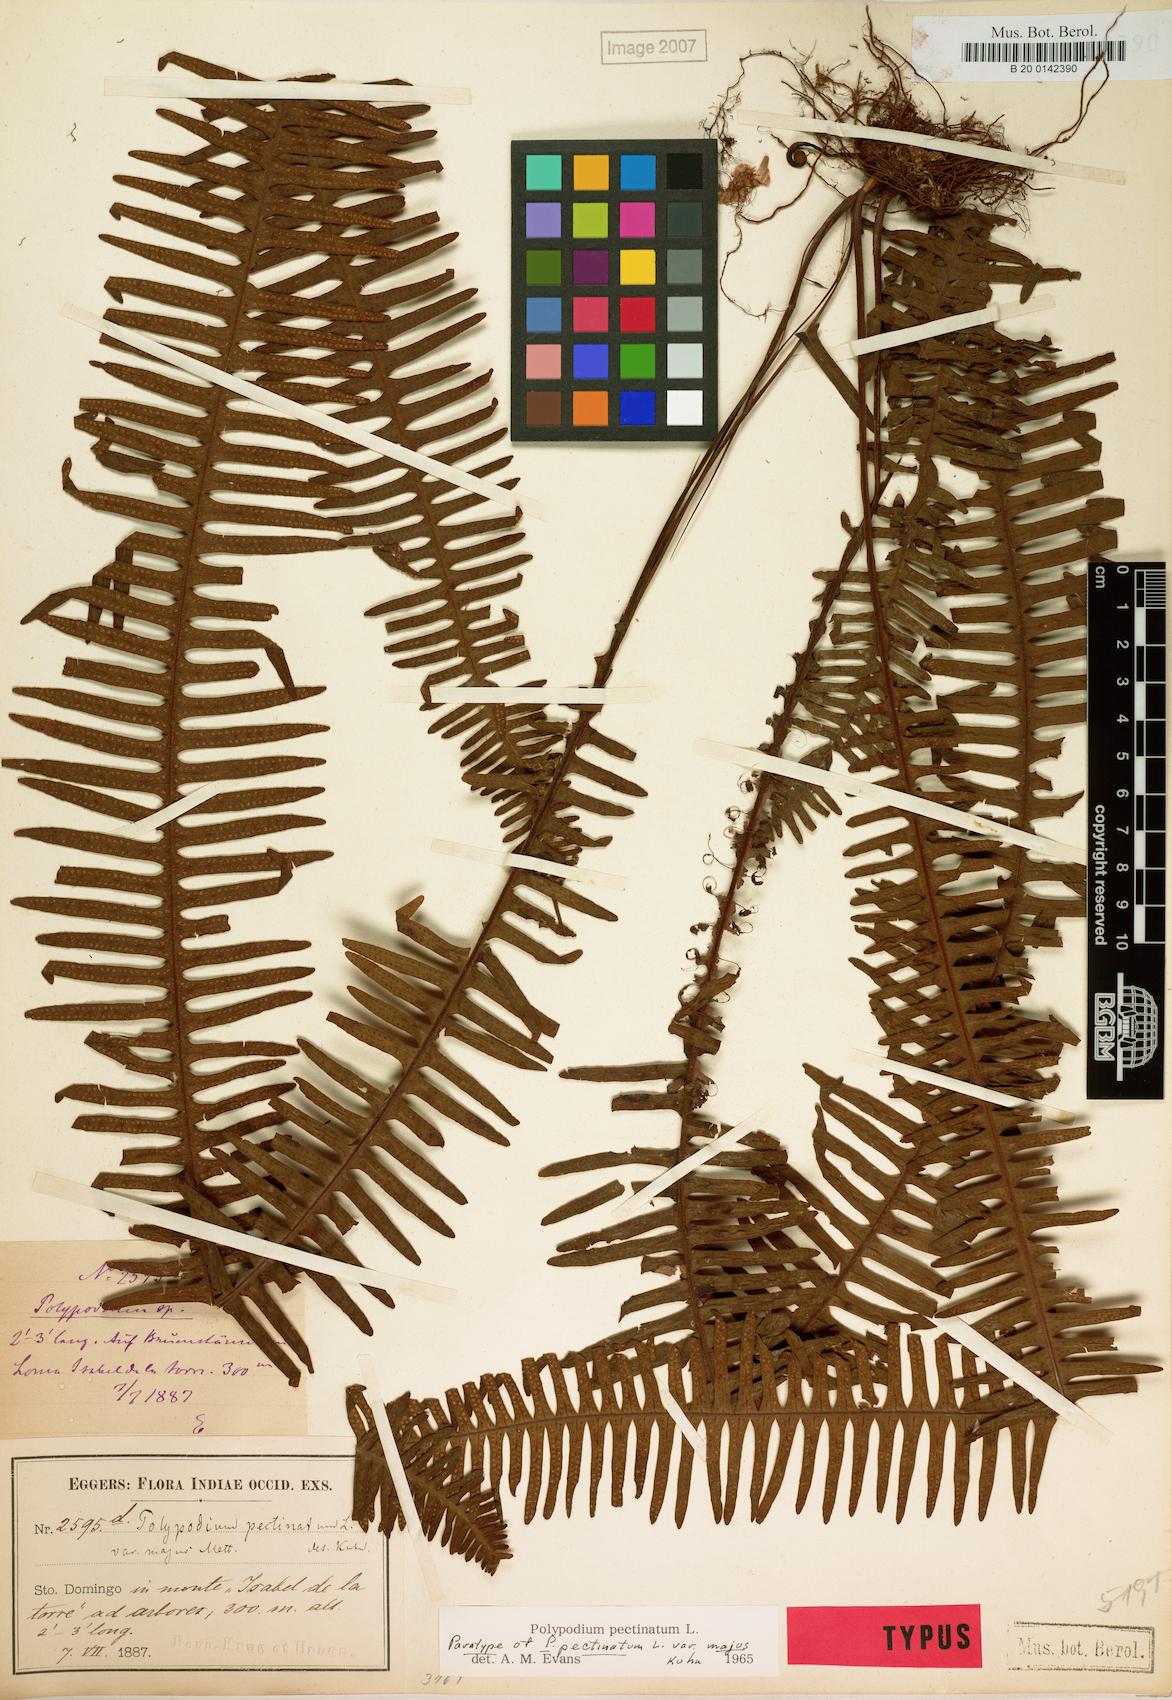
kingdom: Plantae
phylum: Tracheophyta
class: Polypodiopsida
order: Polypodiales
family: Polypodiaceae
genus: Pecluma
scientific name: Pecluma pectinata
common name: Msasa fern
